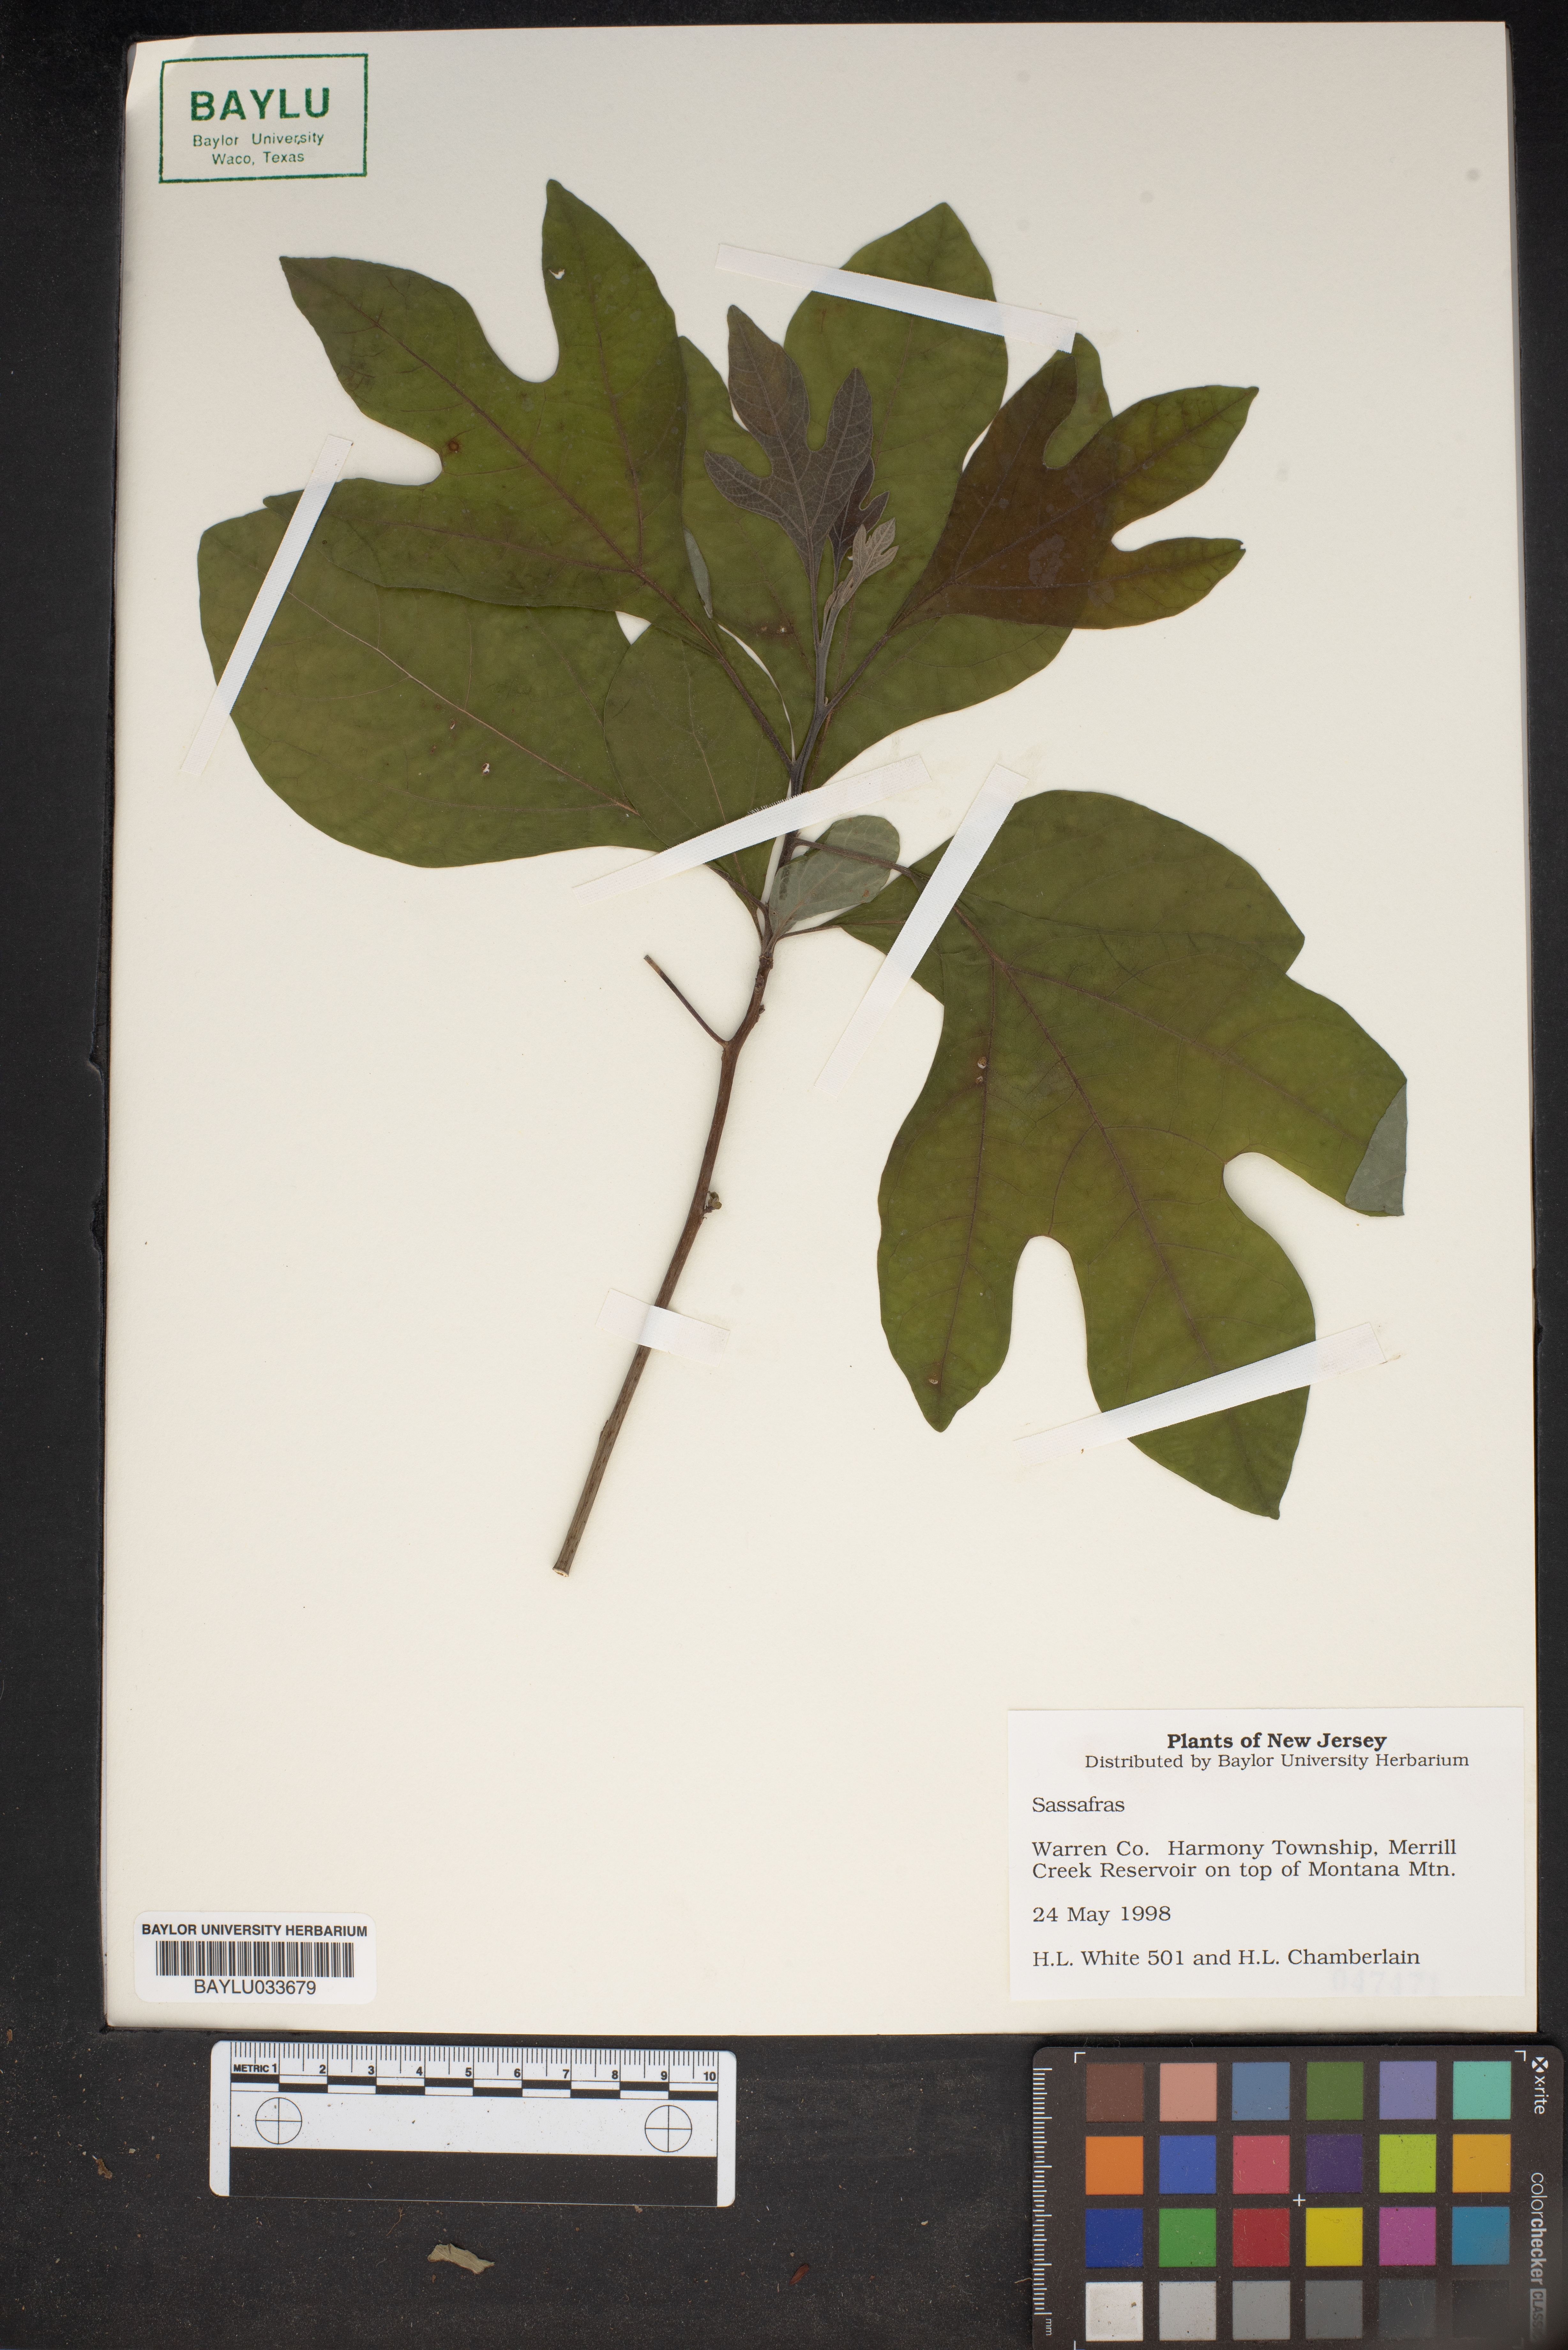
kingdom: Plantae
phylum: Tracheophyta
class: Magnoliopsida
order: Laurales
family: Lauraceae
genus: Sassafras
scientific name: Sassafras
